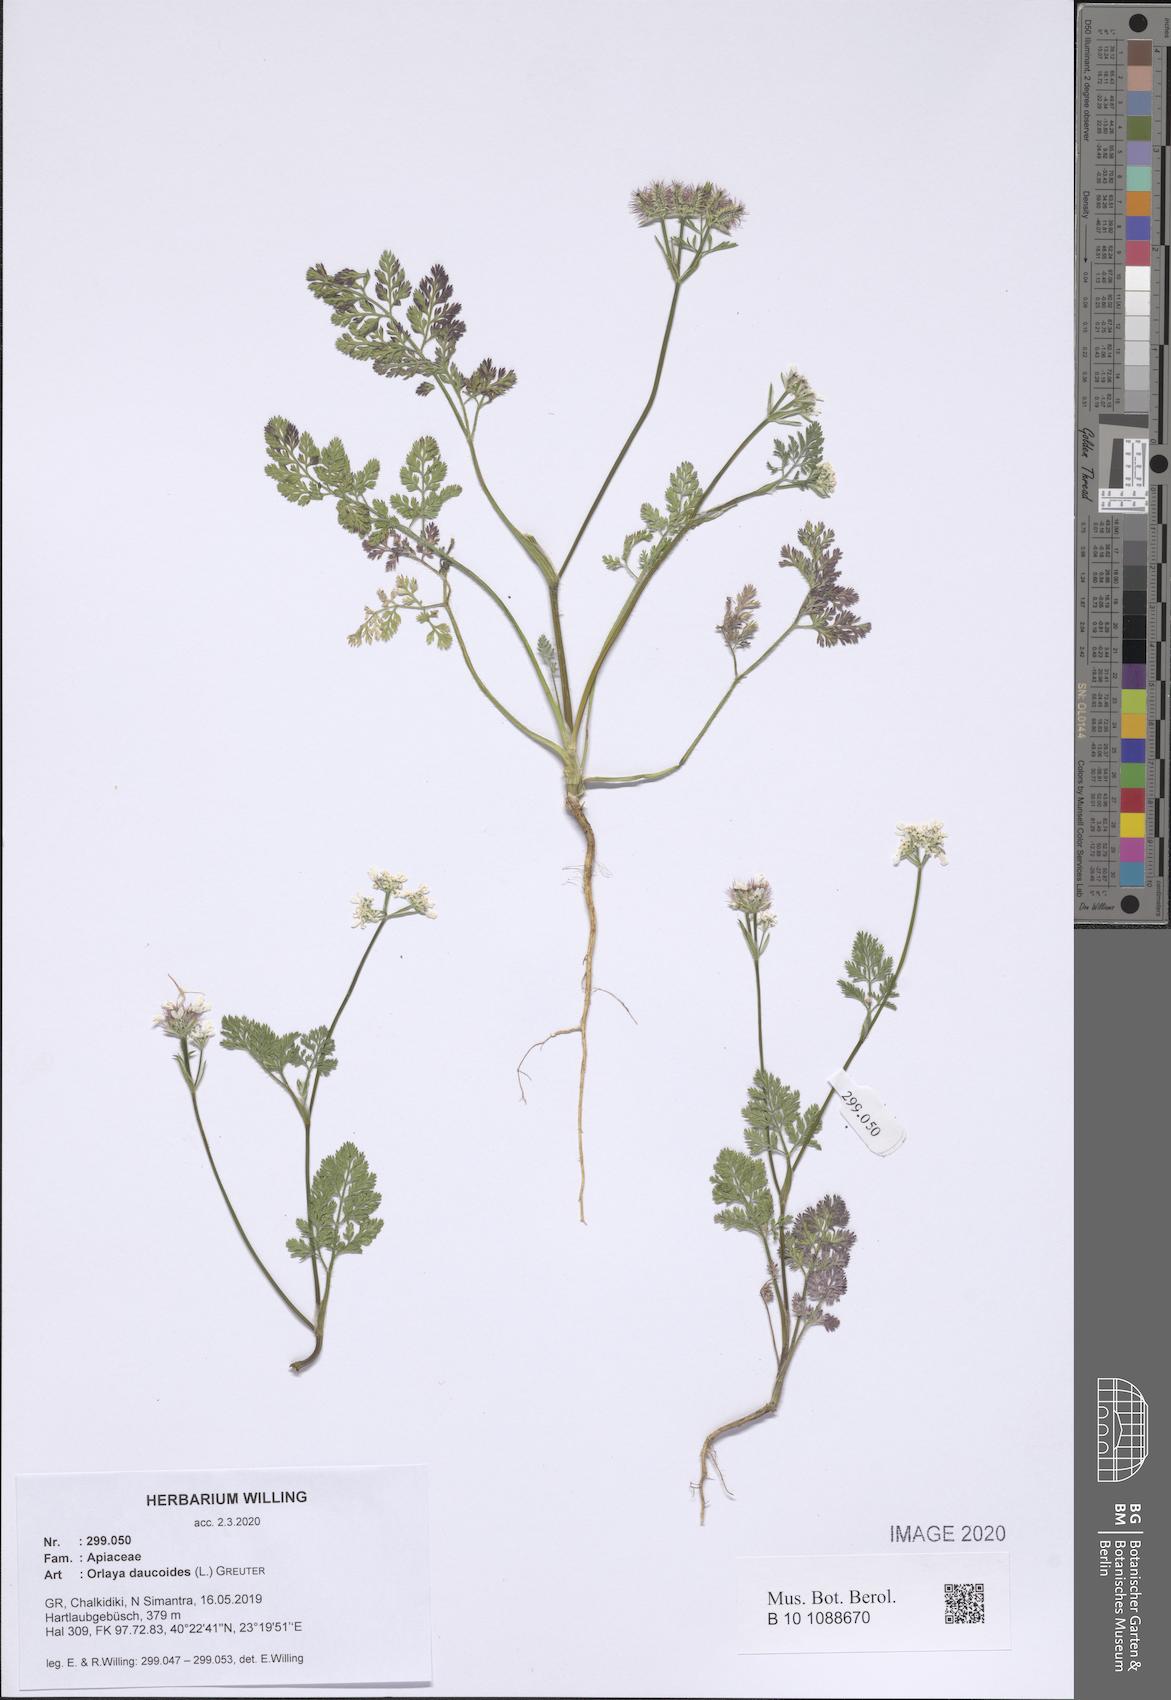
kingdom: Plantae
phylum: Tracheophyta
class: Magnoliopsida
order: Apiales
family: Apiaceae
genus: Orlaya
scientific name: Orlaya daucoides
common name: Flat-fruit orlaya
